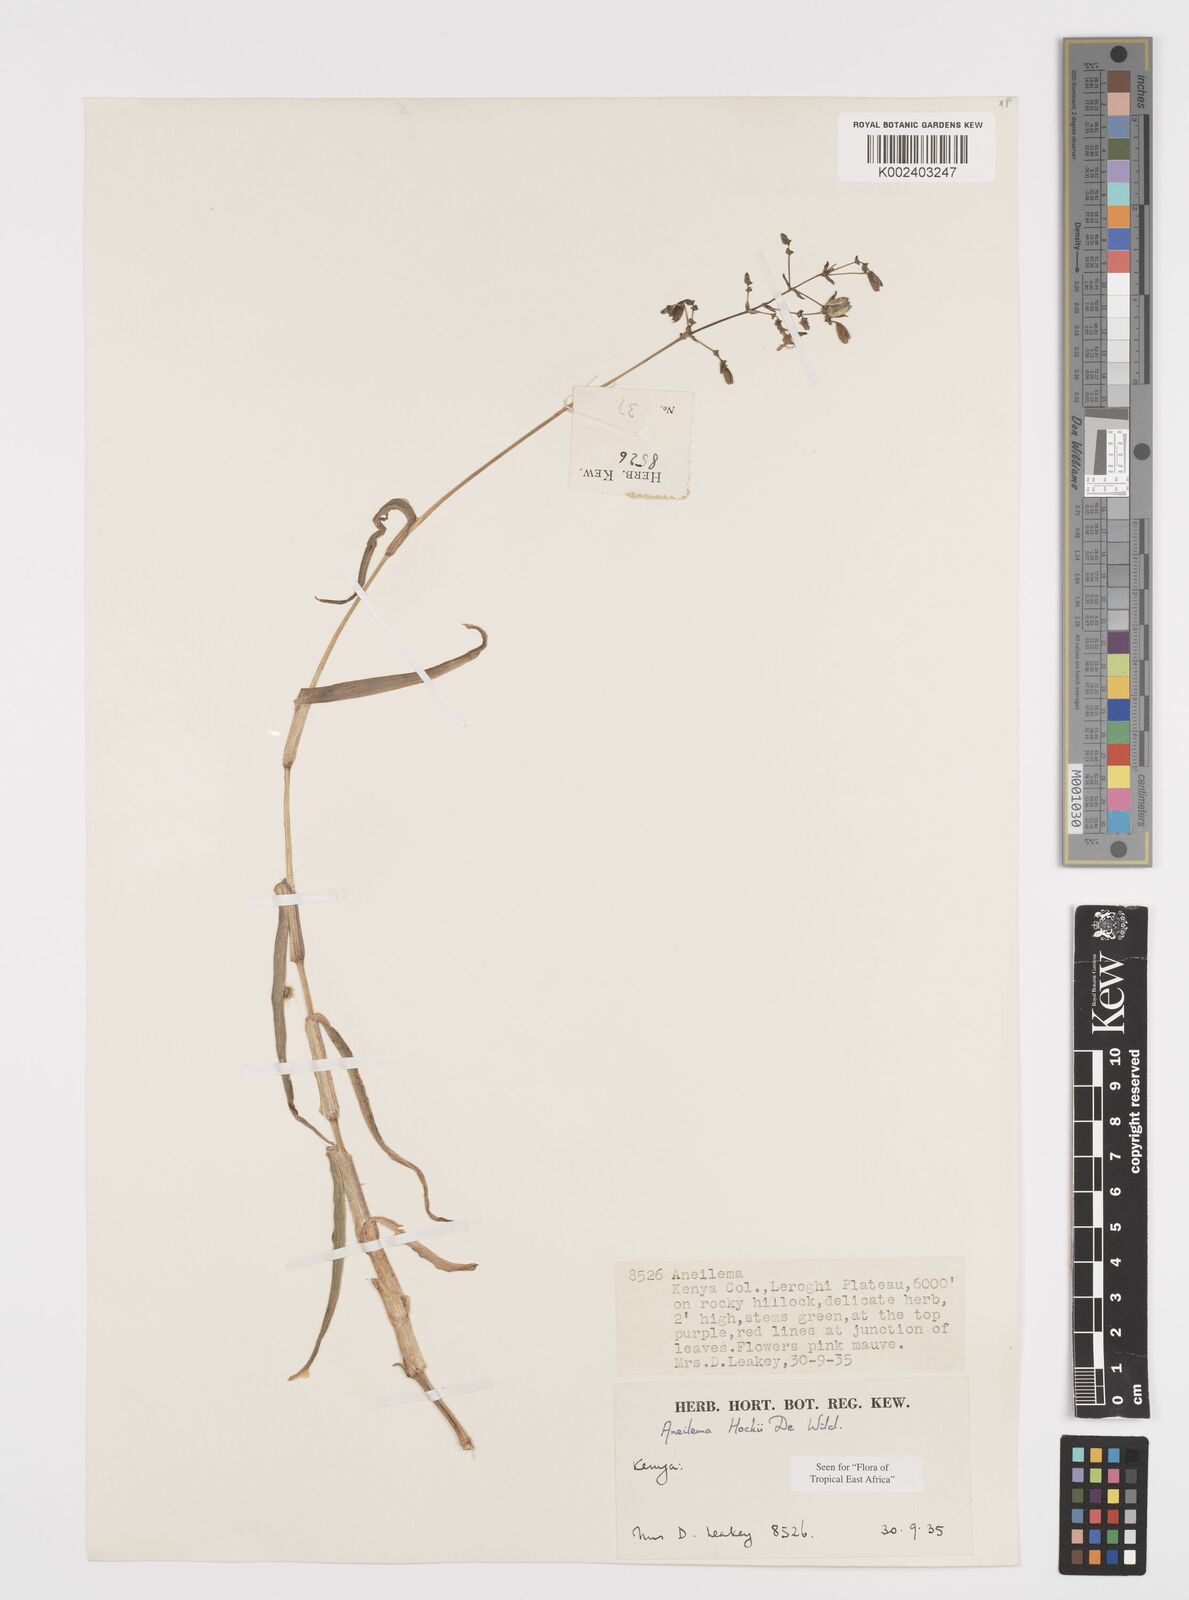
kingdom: Plantae
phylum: Tracheophyta
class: Liliopsida
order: Commelinales
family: Commelinaceae
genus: Aneilema
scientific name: Aneilema hockii
